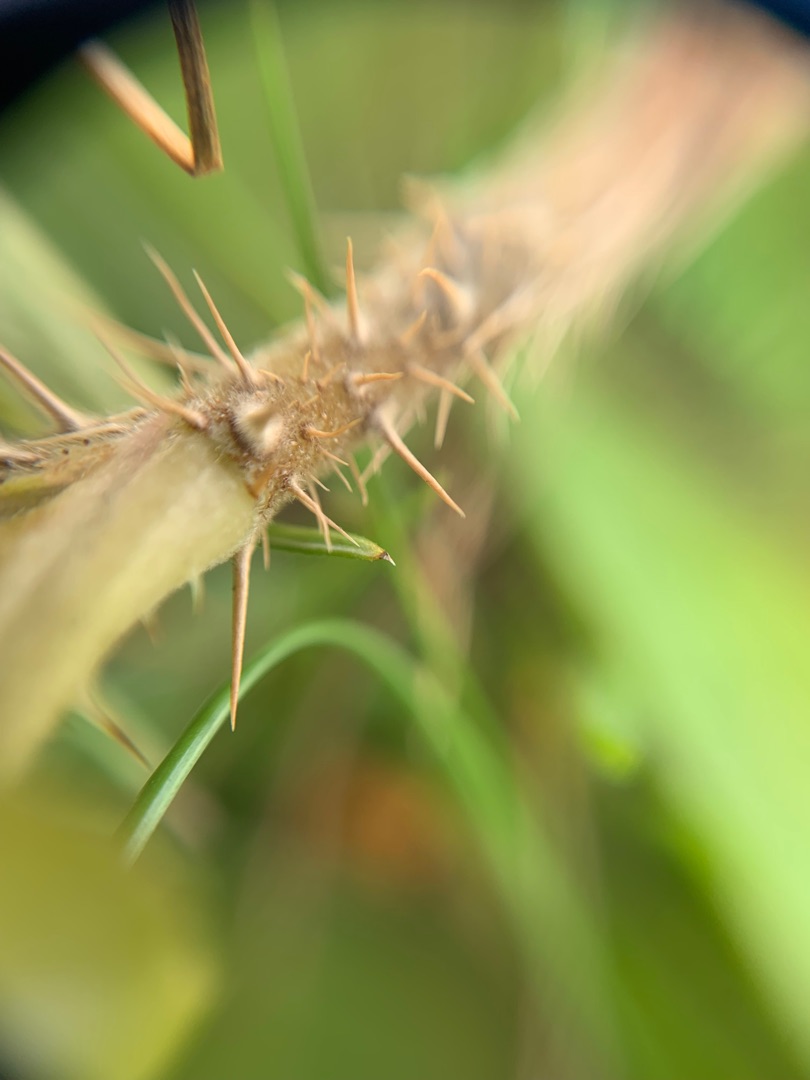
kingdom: Plantae
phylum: Tracheophyta
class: Magnoliopsida
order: Rosales
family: Rosaceae
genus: Rosa
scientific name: Rosa rugosa
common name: Rynket rose
